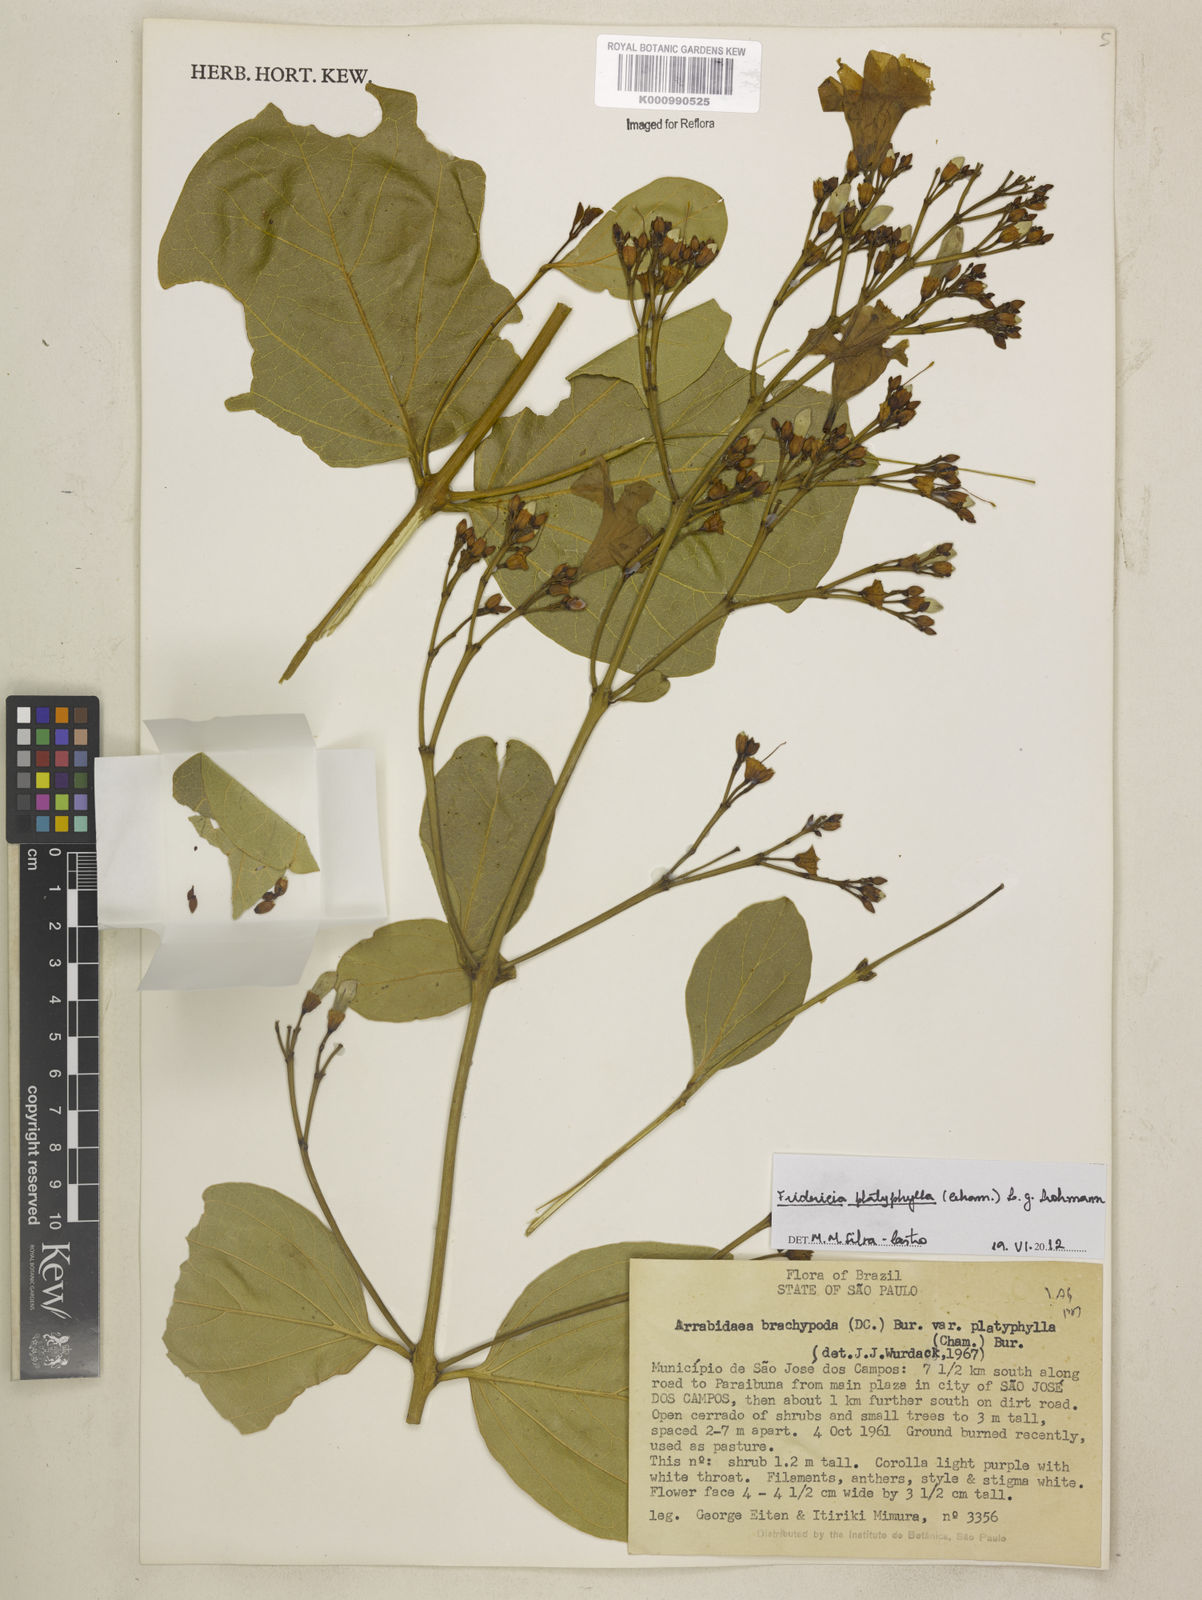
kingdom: Plantae
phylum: Tracheophyta
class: Magnoliopsida
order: Lamiales
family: Bignoniaceae
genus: Fridericia
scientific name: Fridericia platyphylla
